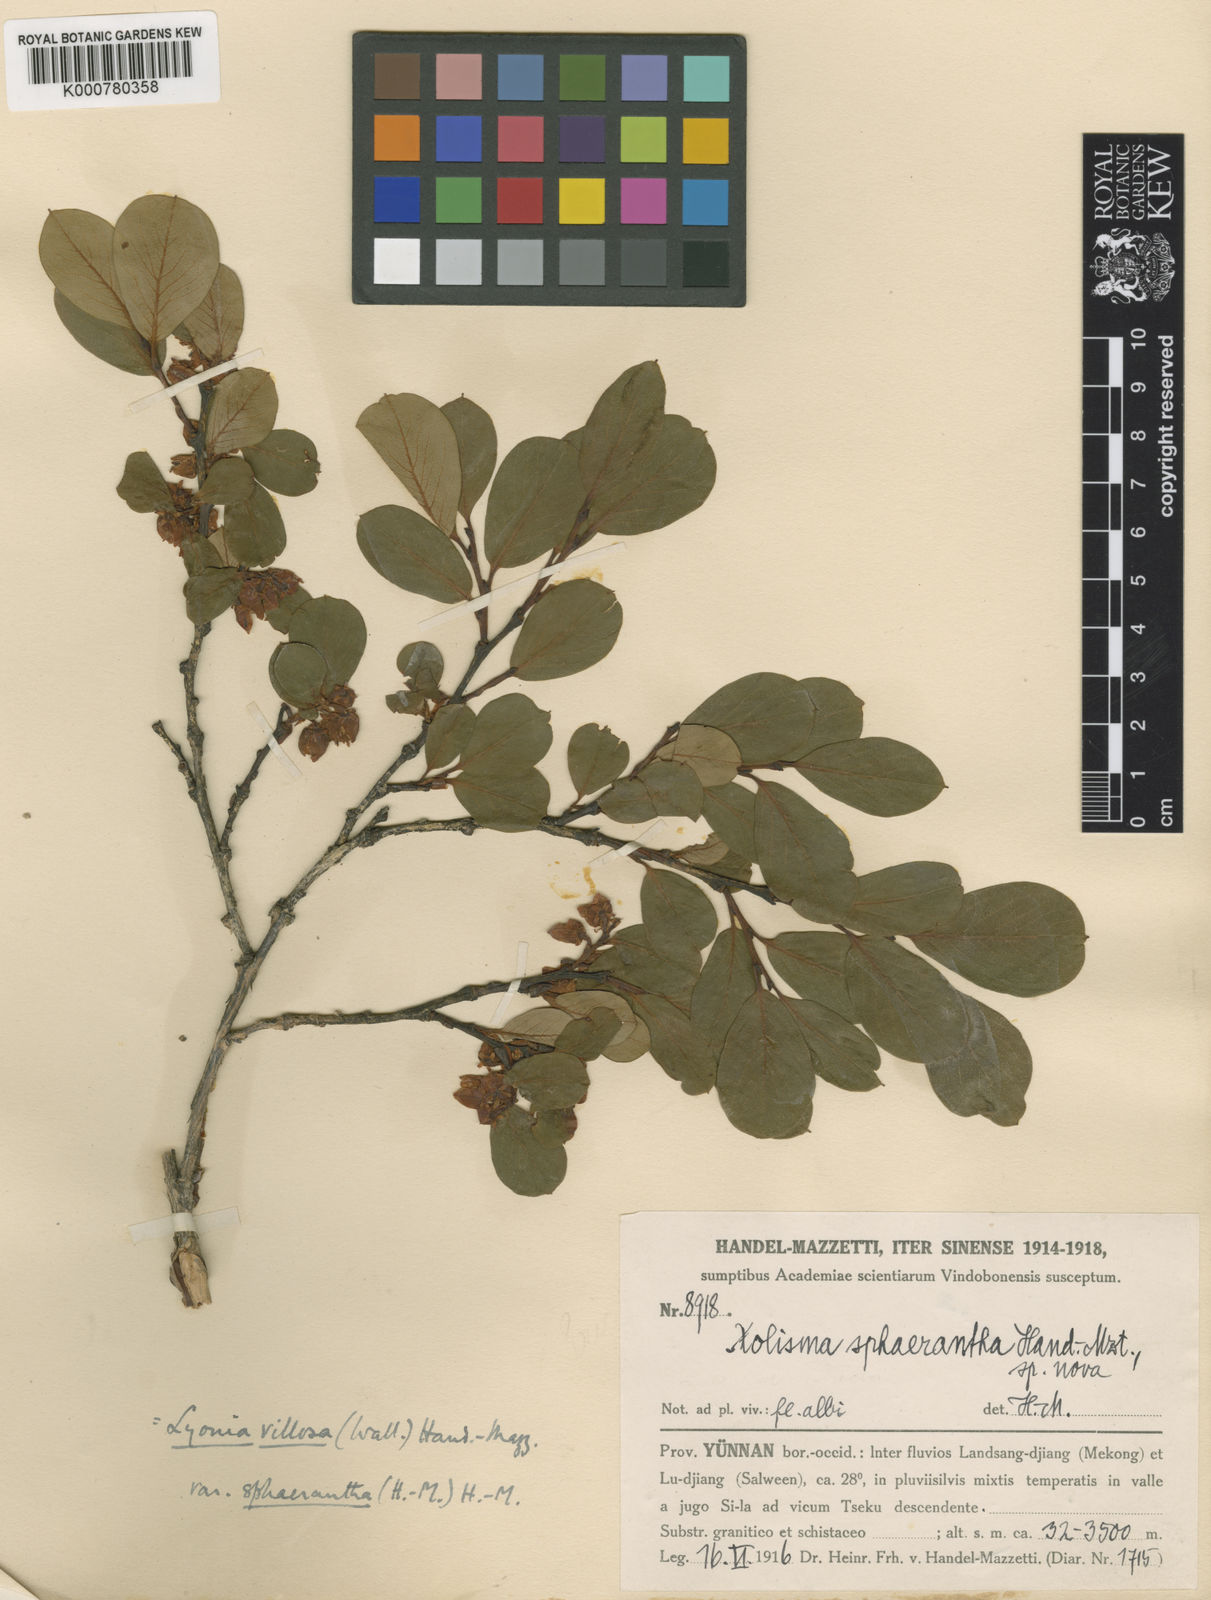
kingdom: Plantae
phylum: Tracheophyta
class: Magnoliopsida
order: Ericales
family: Ericaceae
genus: Lyonia
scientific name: Lyonia villosa
